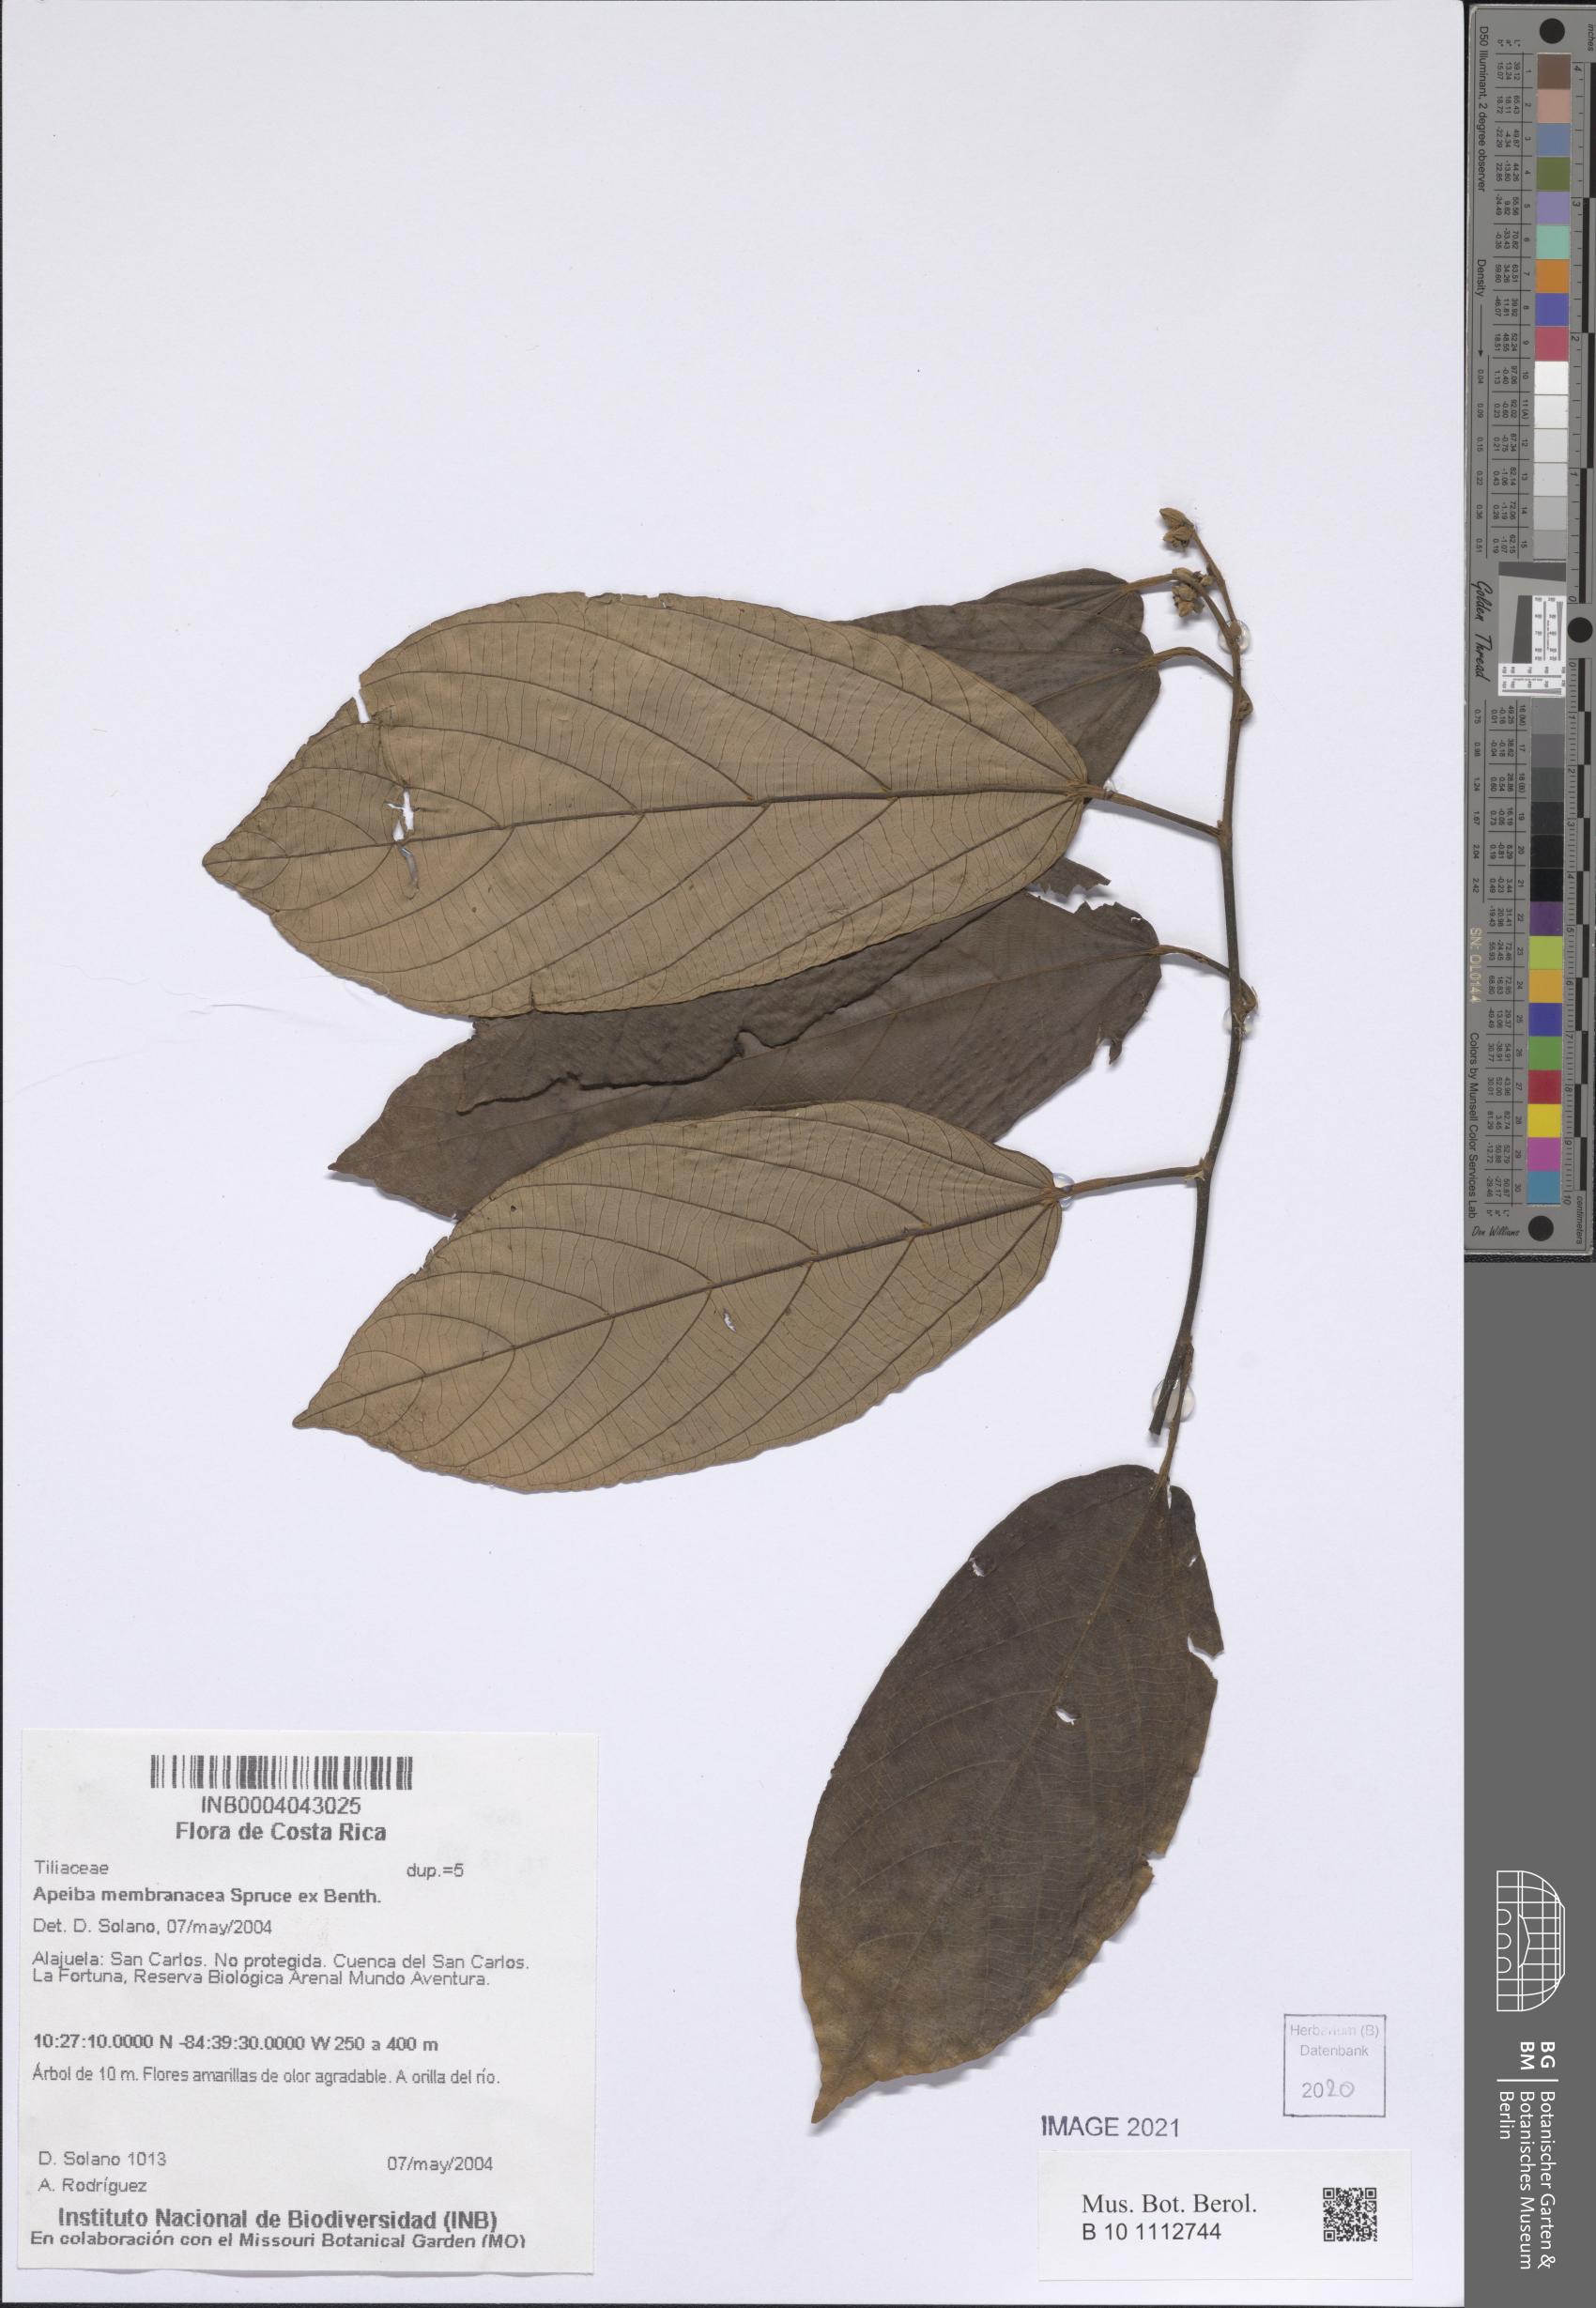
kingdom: Plantae
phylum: Tracheophyta
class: Magnoliopsida
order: Malvales
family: Malvaceae
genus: Apeiba
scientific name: Apeiba membranacea
